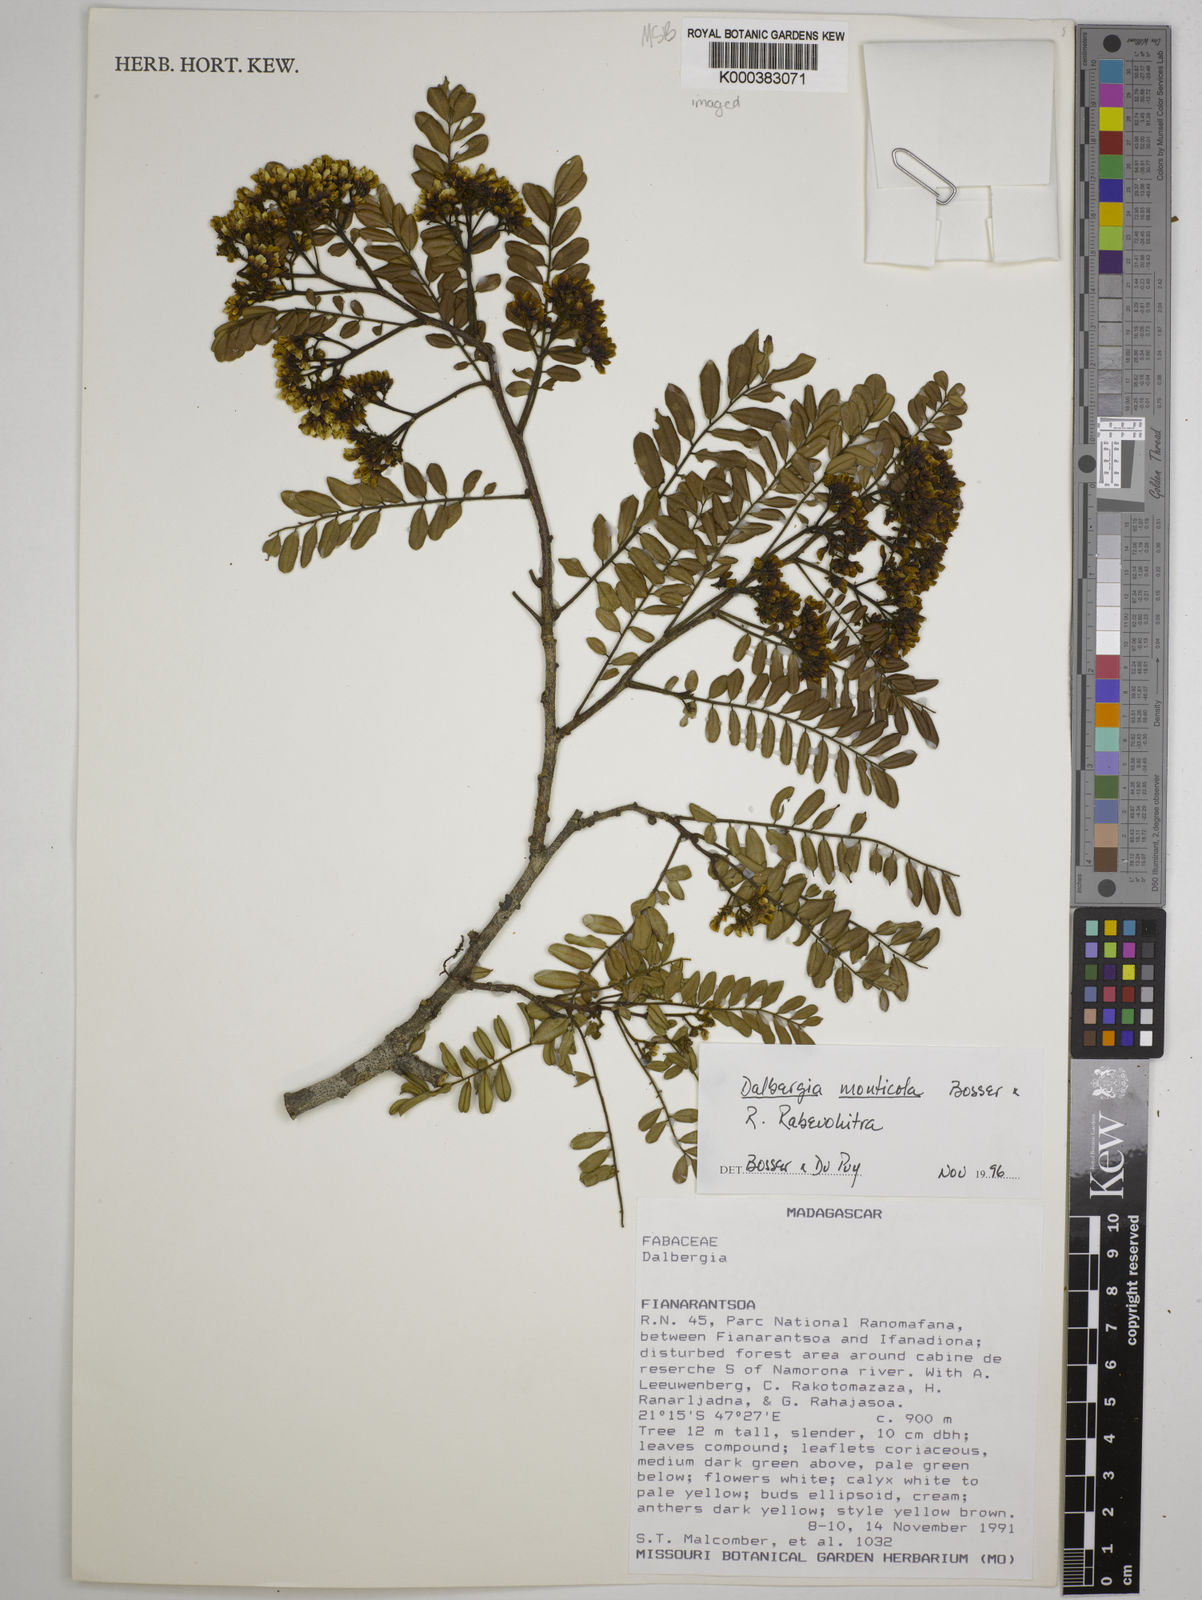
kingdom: Plantae
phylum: Tracheophyta
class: Magnoliopsida
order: Fabales
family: Fabaceae
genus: Dalbergia
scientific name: Dalbergia monticola
